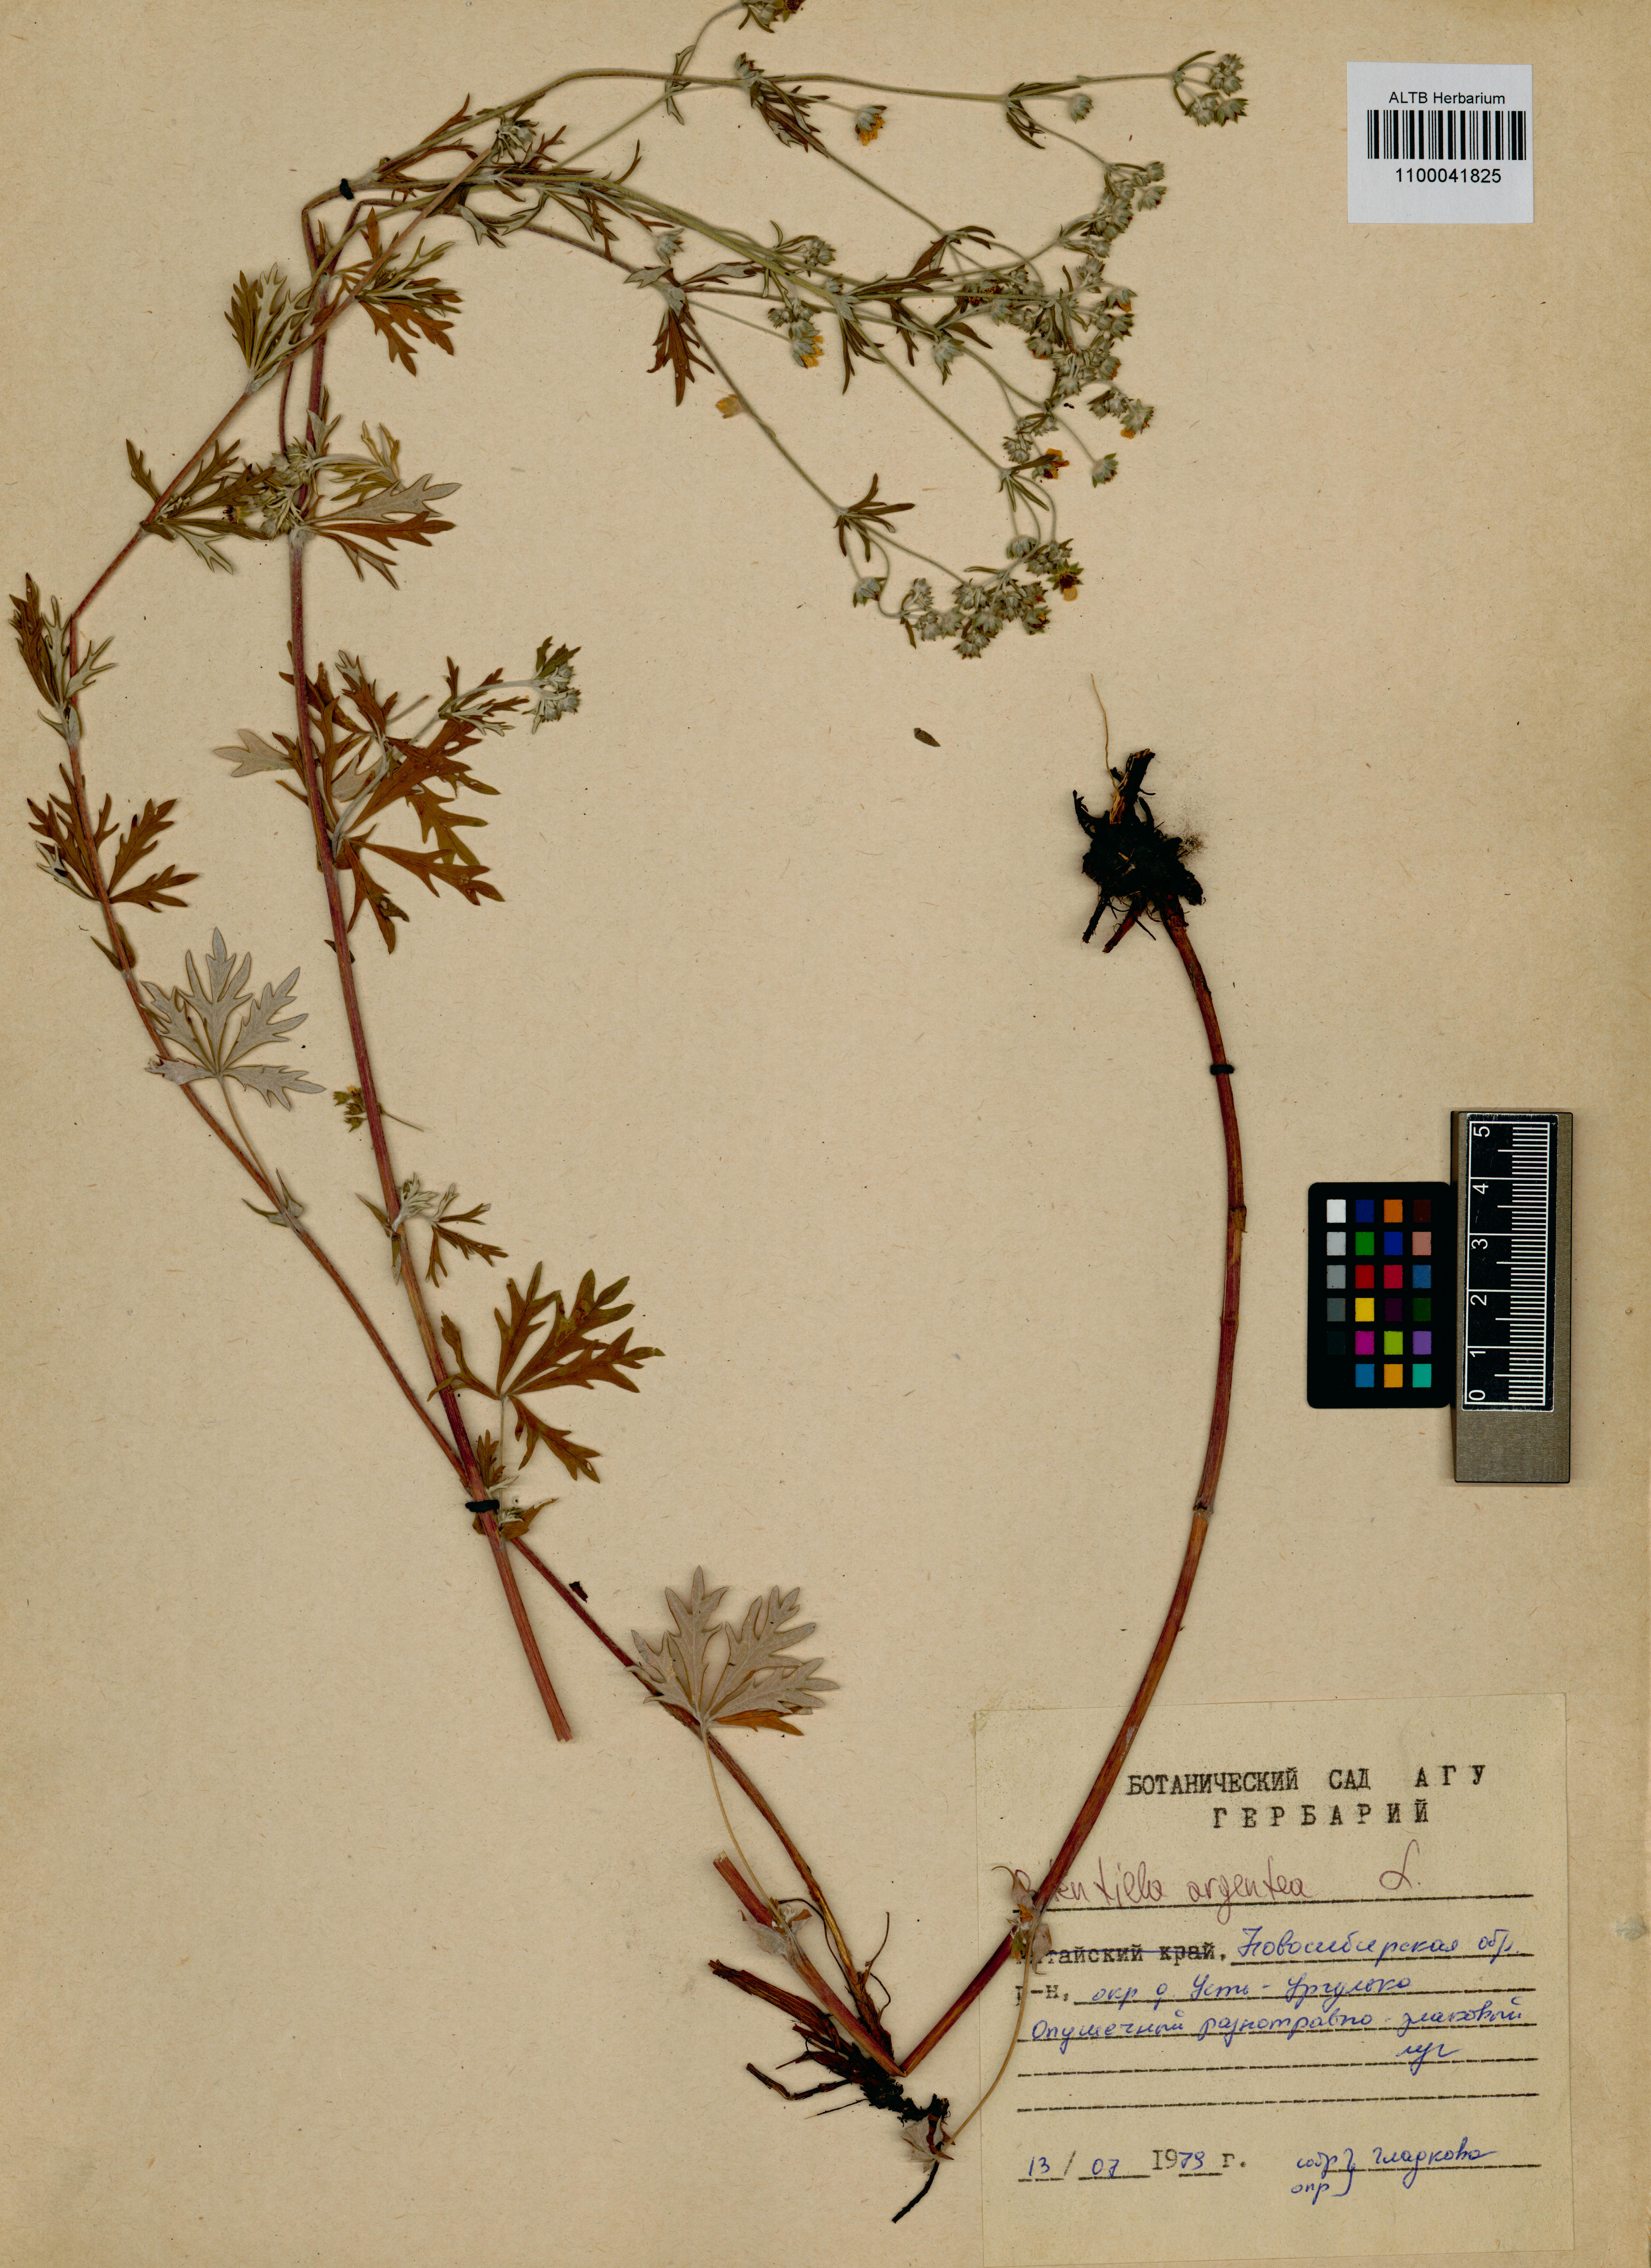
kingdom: Plantae
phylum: Tracheophyta
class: Magnoliopsida
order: Rosales
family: Rosaceae
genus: Potentilla
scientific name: Potentilla argentea
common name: Hoary cinquefoil
